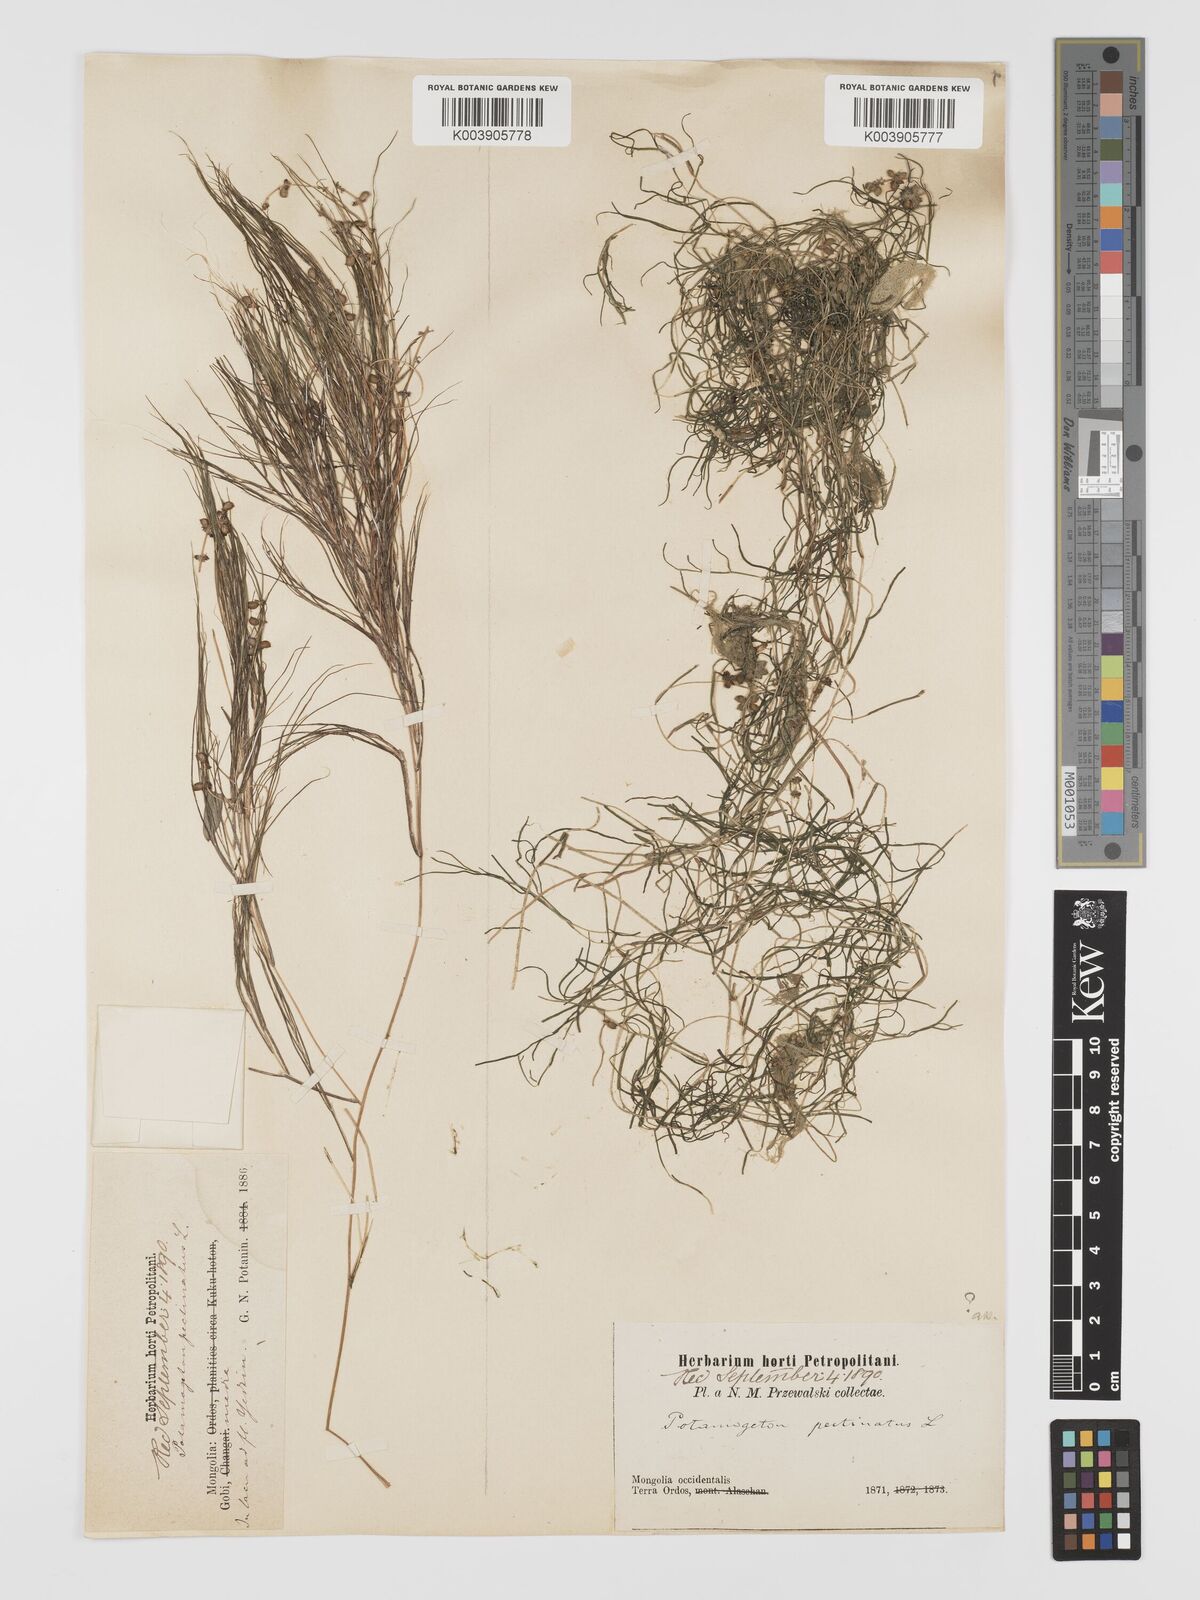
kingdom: Plantae
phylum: Tracheophyta
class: Liliopsida
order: Alismatales
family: Potamogetonaceae
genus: Stuckenia
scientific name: Stuckenia pectinata
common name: Sago pondweed
